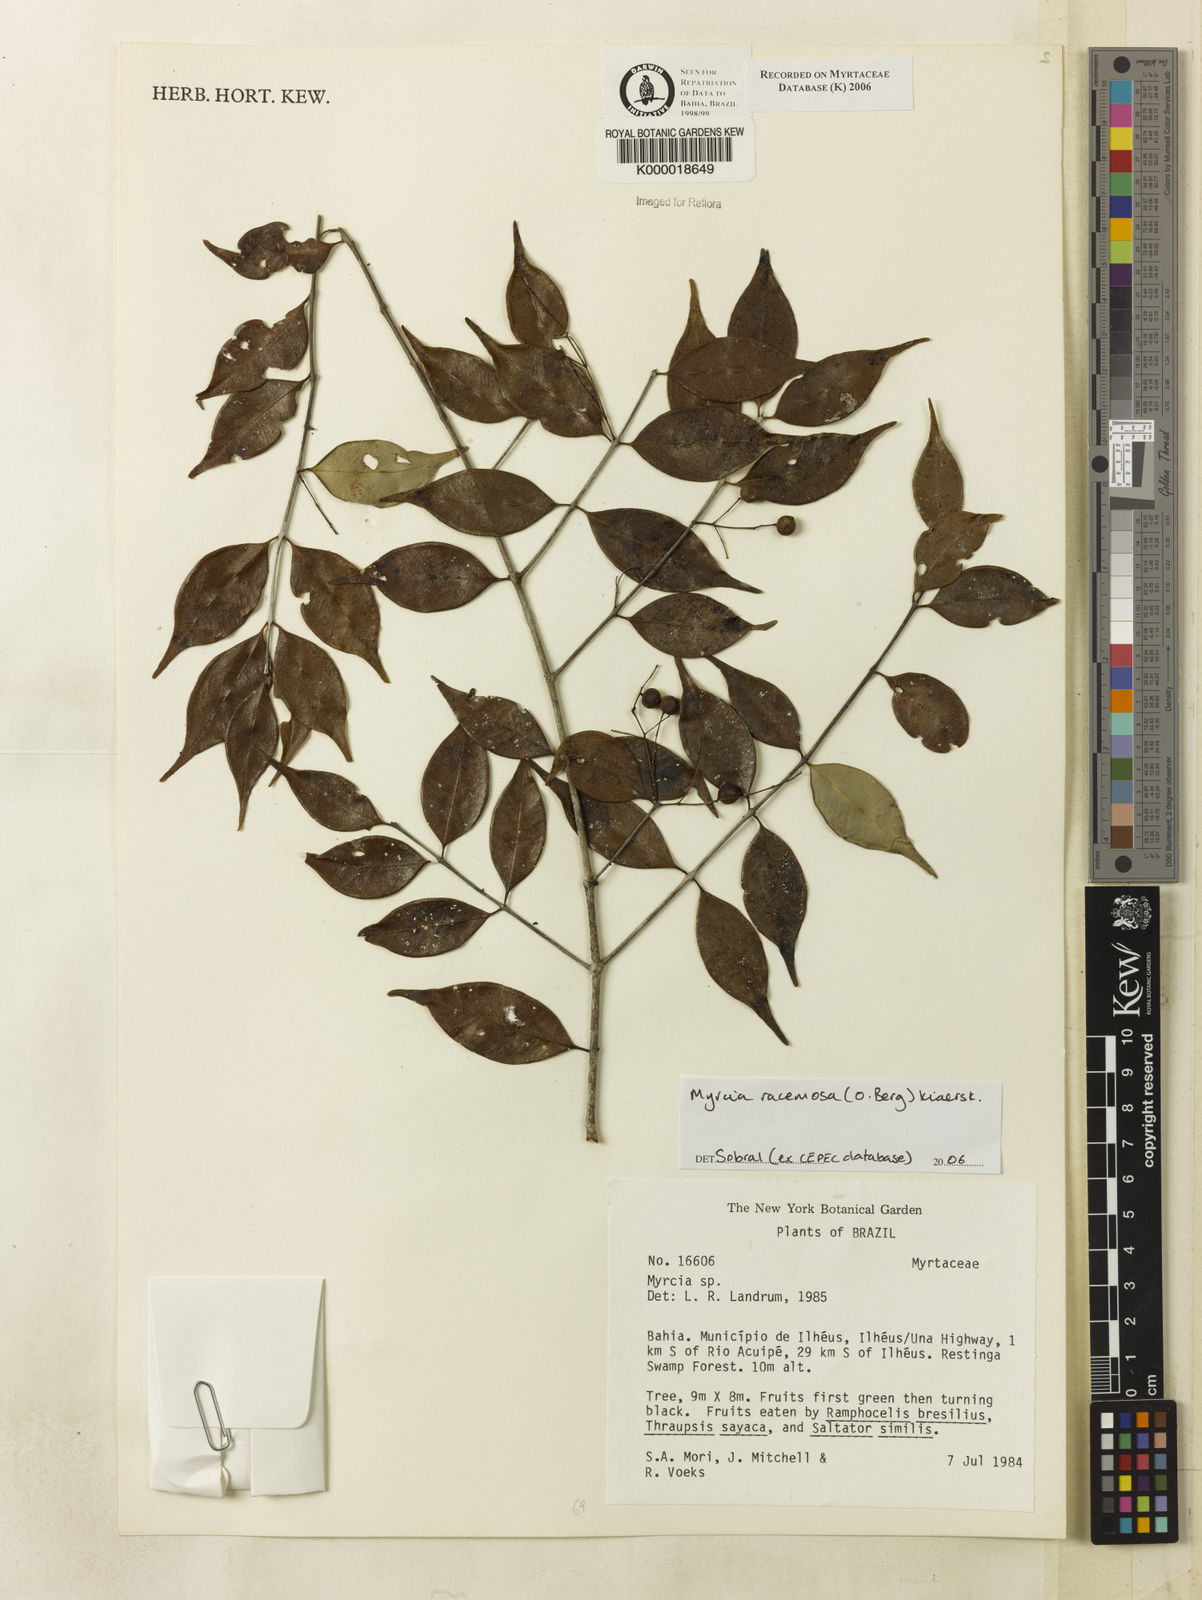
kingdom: Plantae
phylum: Tracheophyta
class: Magnoliopsida
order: Myrtales
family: Myrtaceae
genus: Myrcia
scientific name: Myrcia
